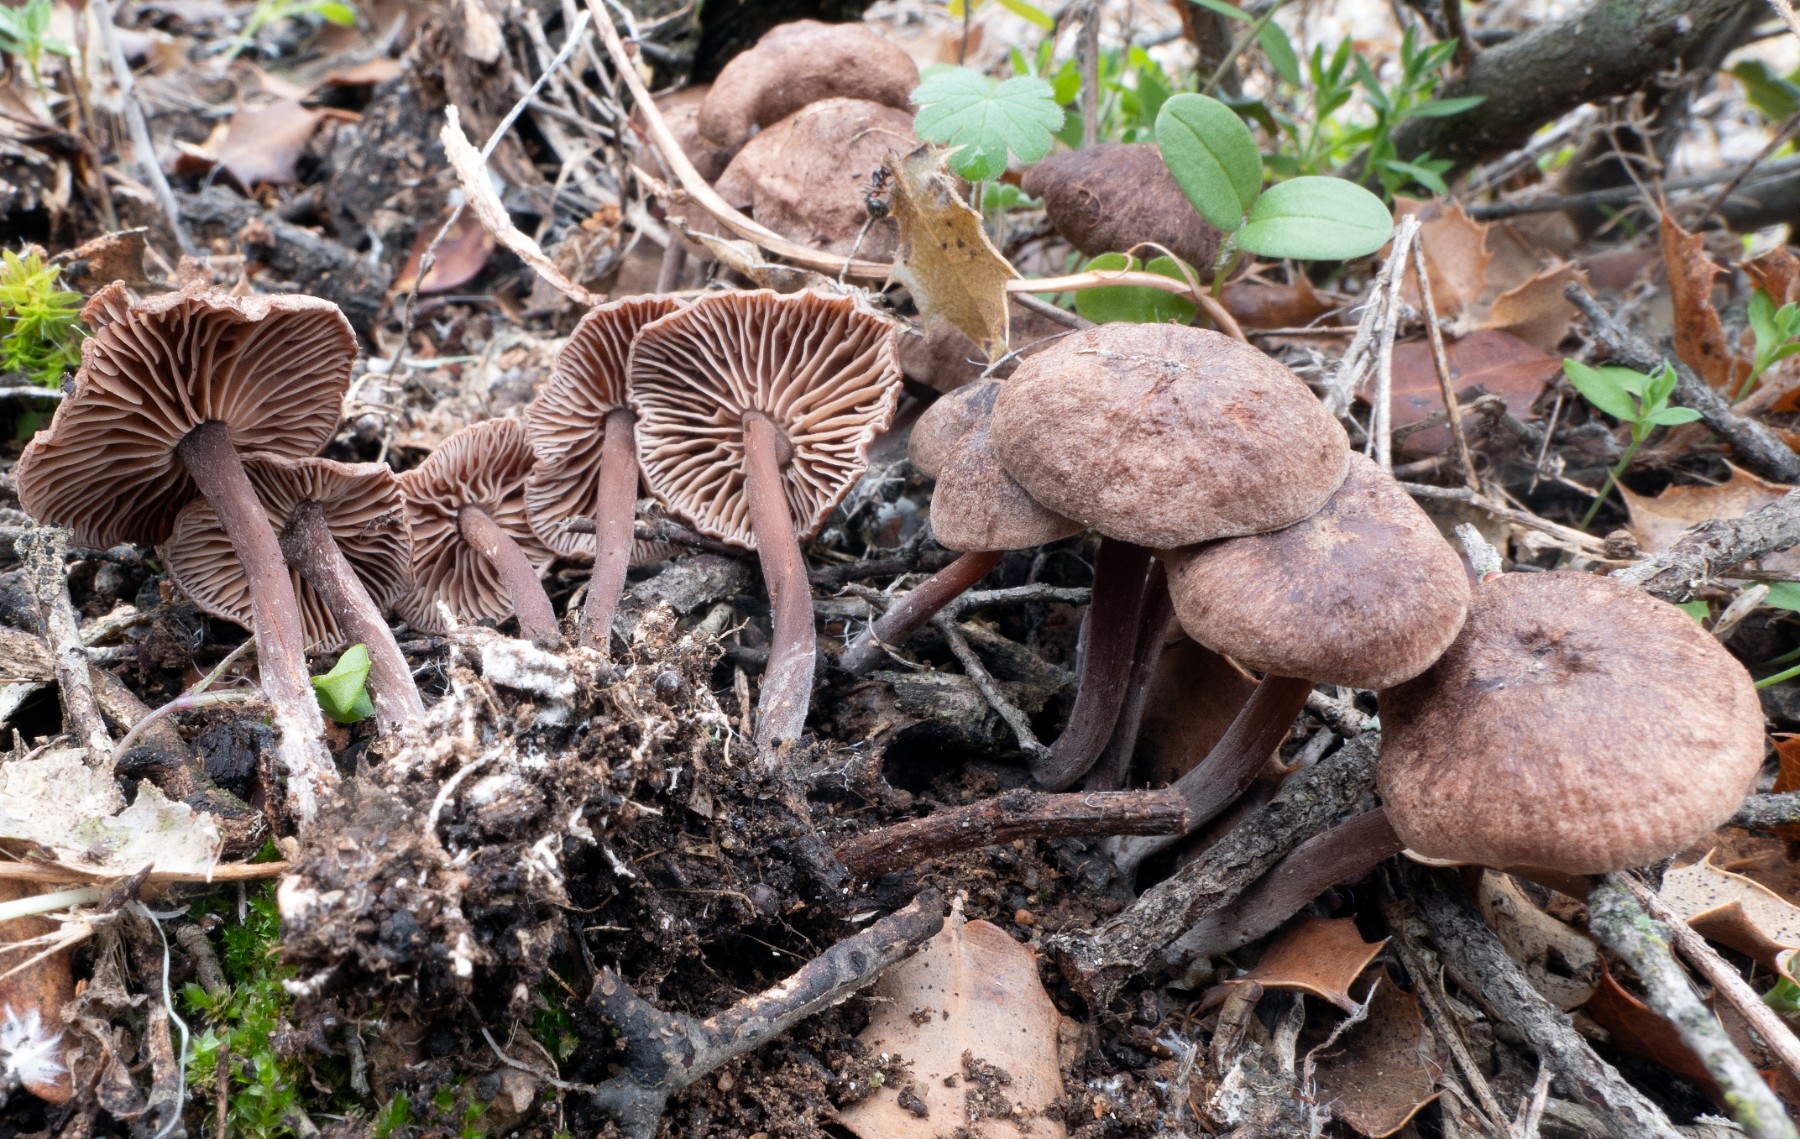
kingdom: Fungi
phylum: Basidiomycota
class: Agaricomycetes
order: Agaricales
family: Omphalotaceae
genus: Collybiopsis
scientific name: Collybiopsis obscuroides
